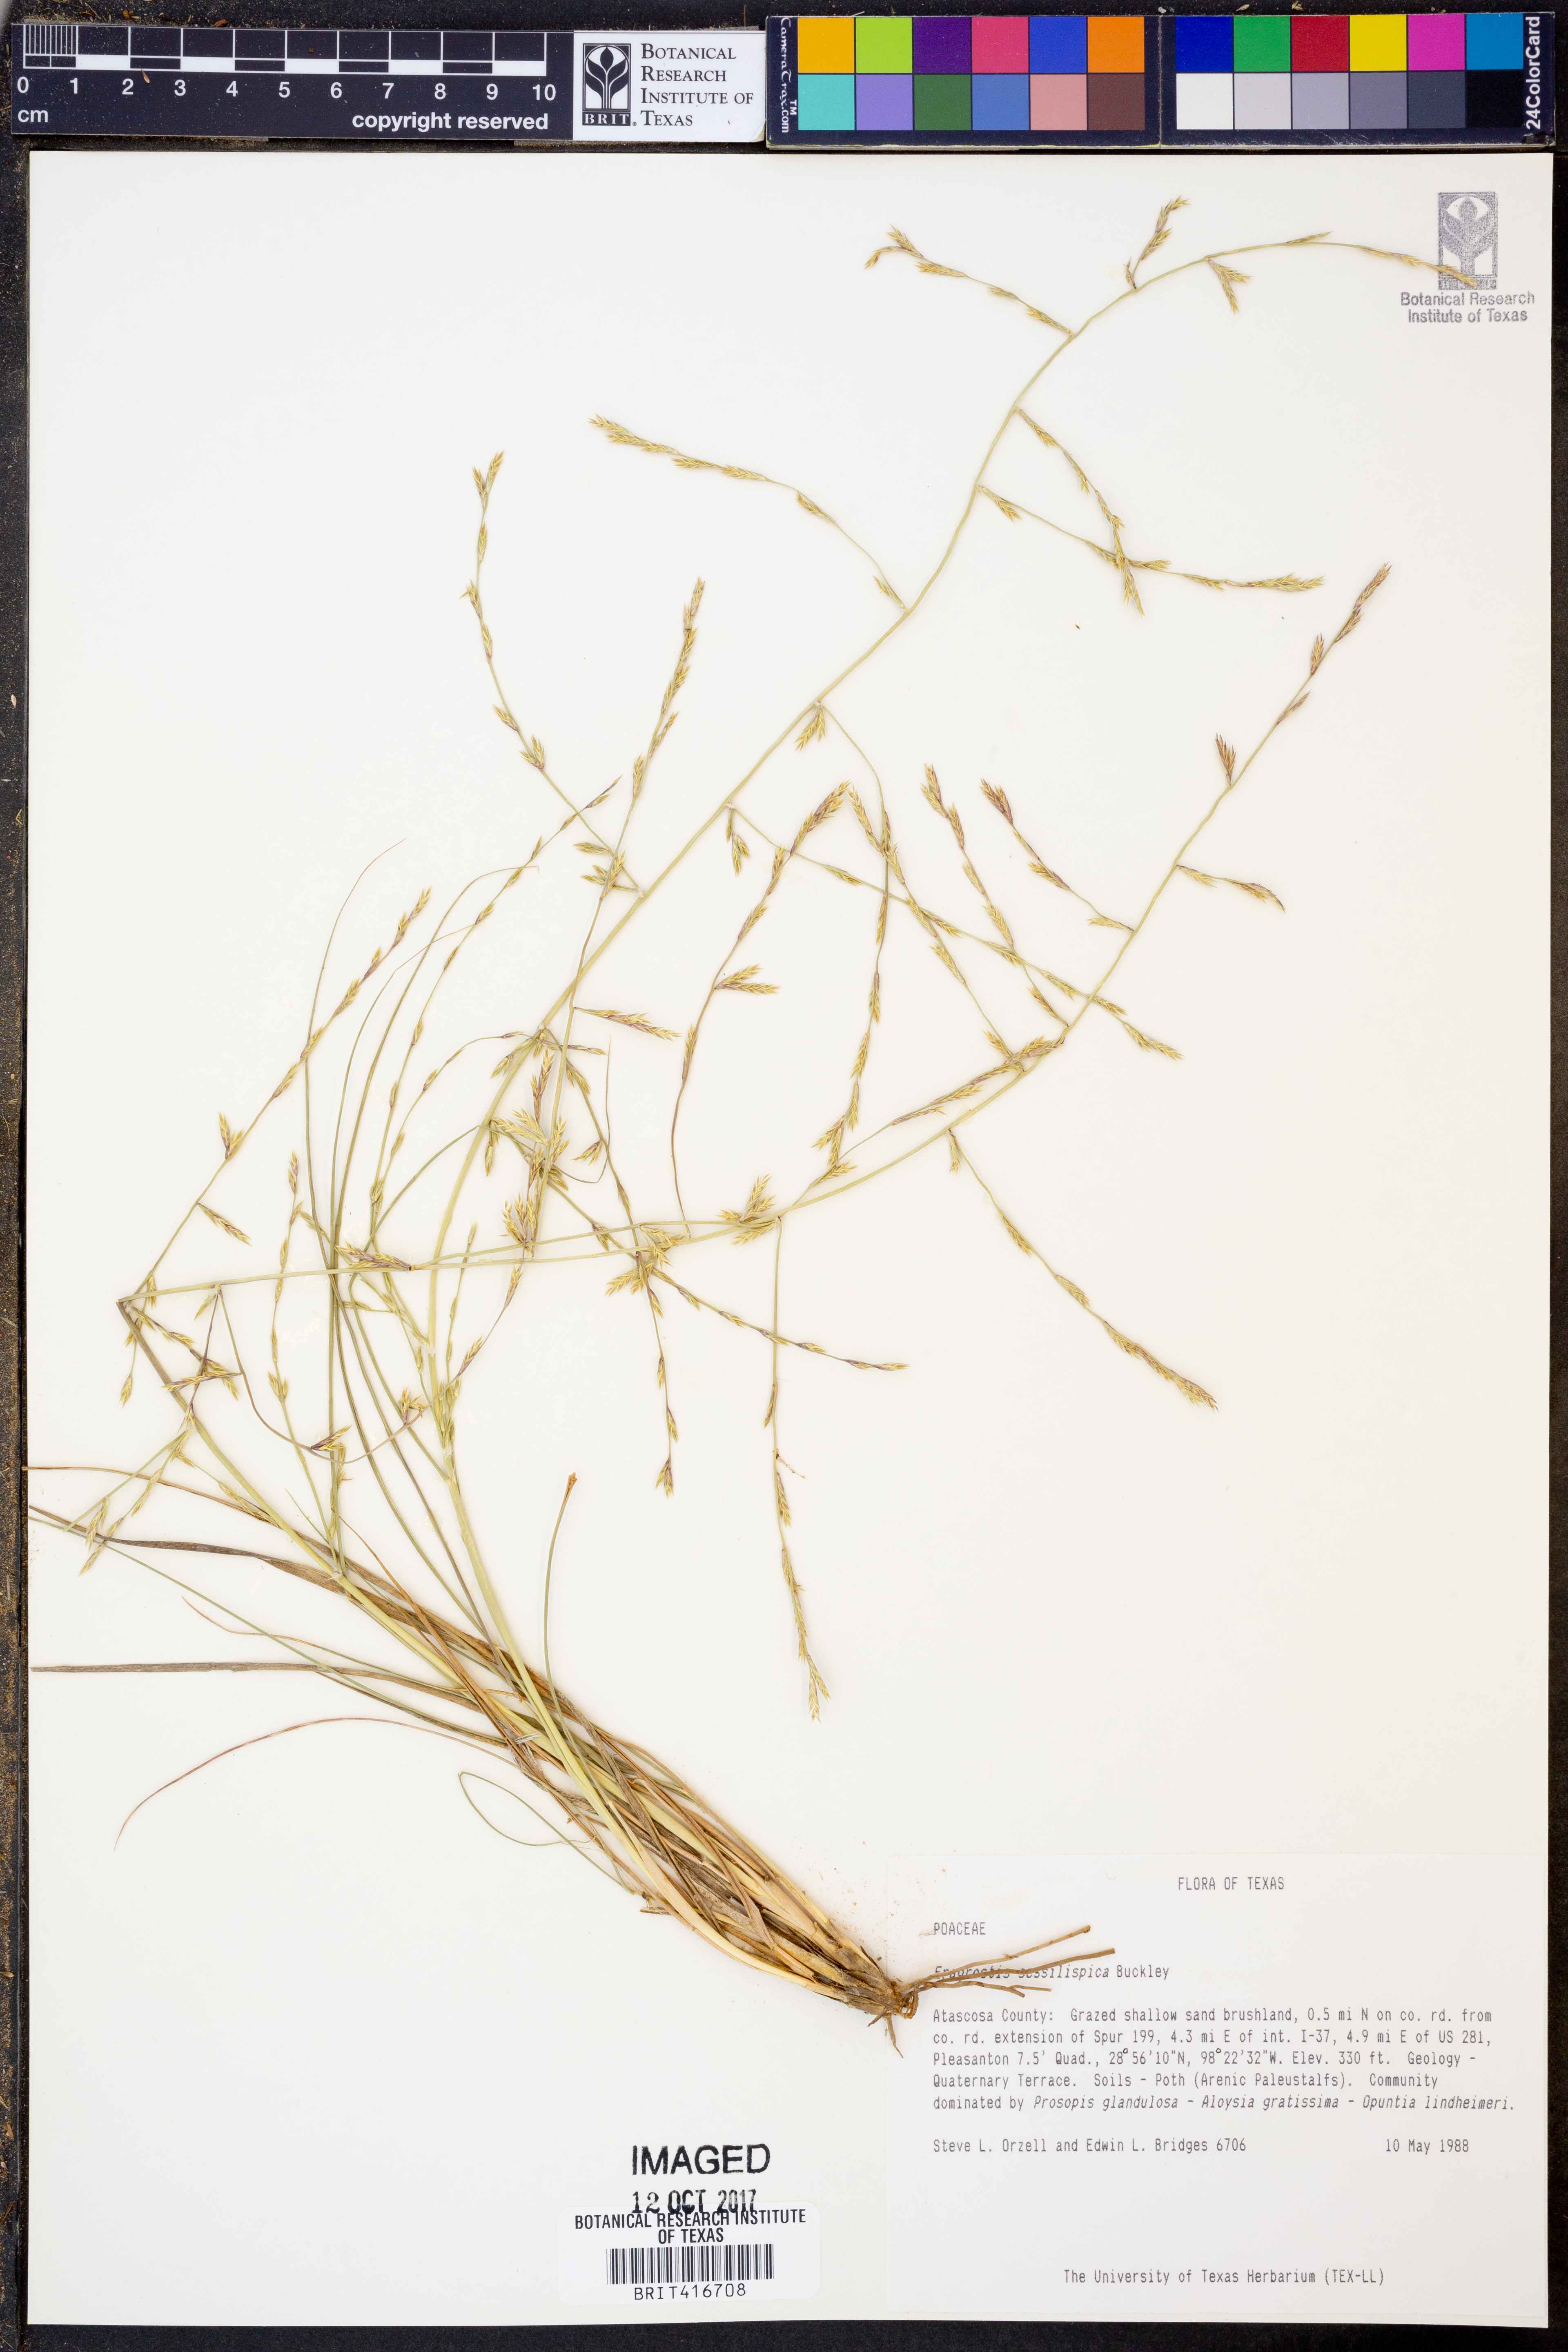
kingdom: Plantae
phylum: Tracheophyta
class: Liliopsida
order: Poales
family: Poaceae
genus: Eragrostis
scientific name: Eragrostis sessilispica
